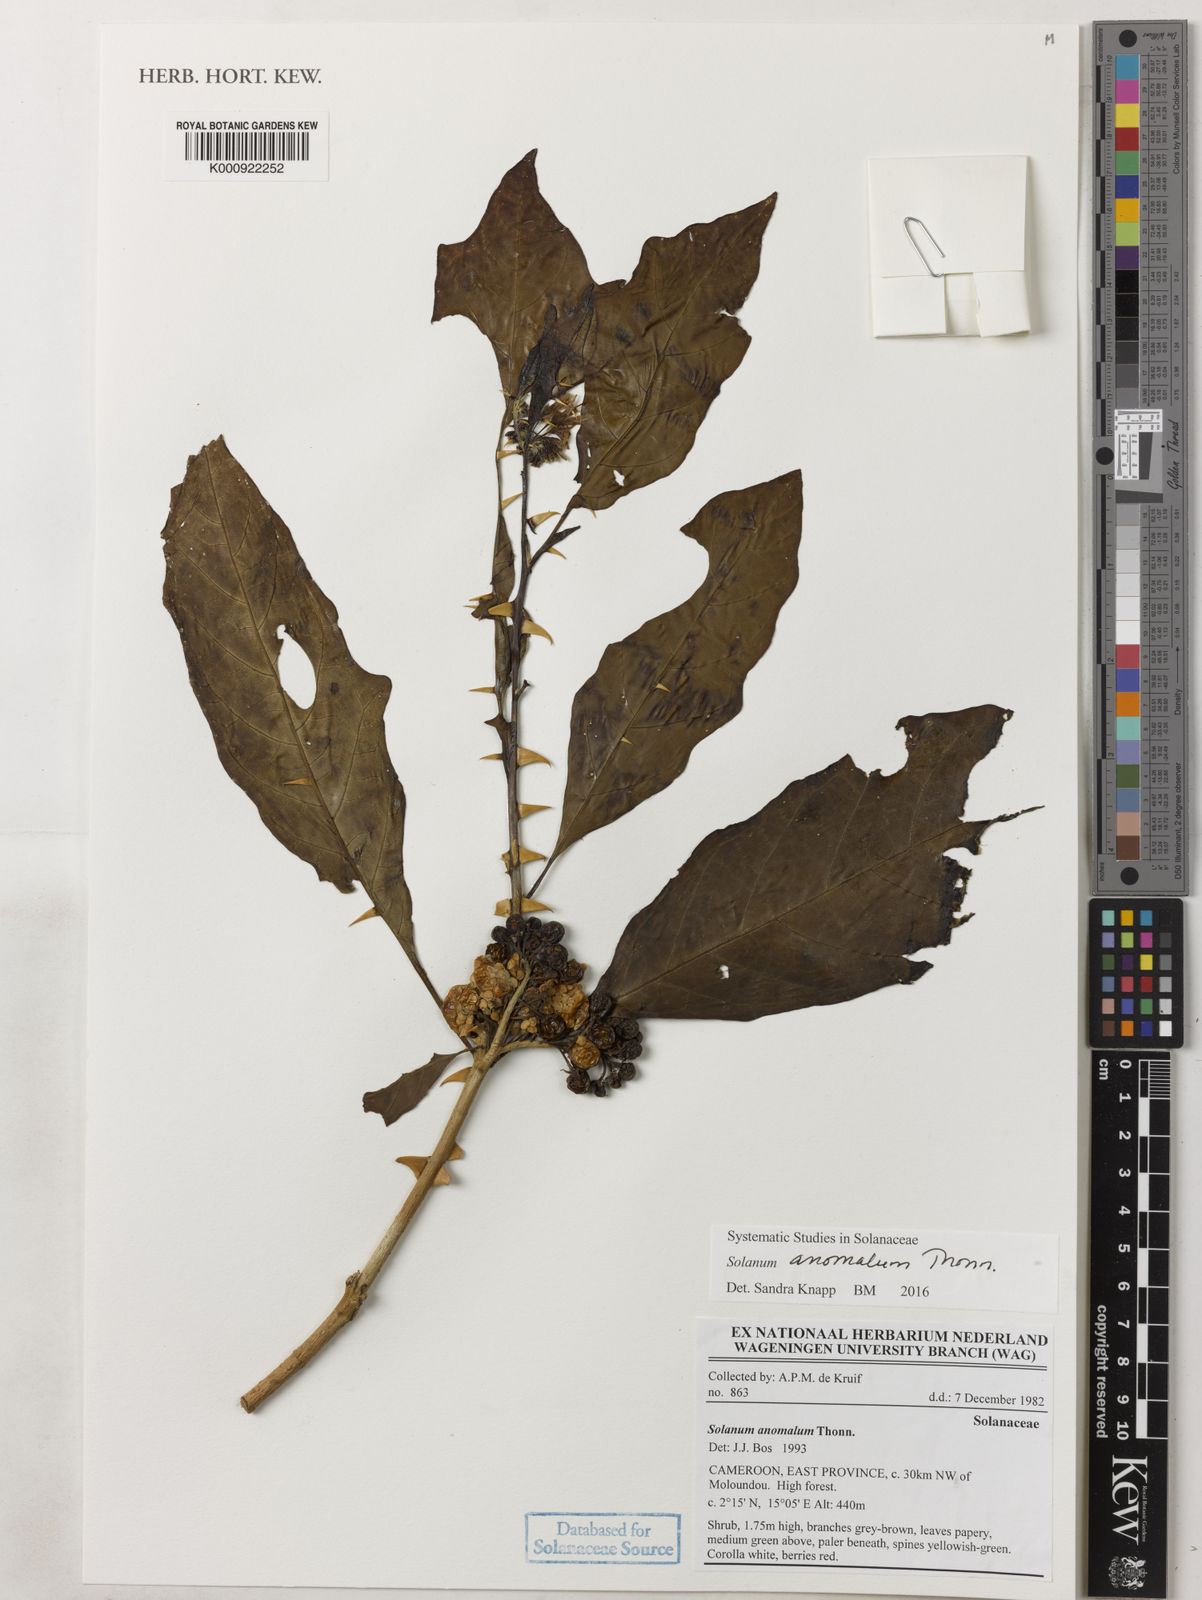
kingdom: Plantae
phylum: Tracheophyta
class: Magnoliopsida
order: Solanales
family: Solanaceae
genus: Solanum
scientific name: Solanum anomalum
